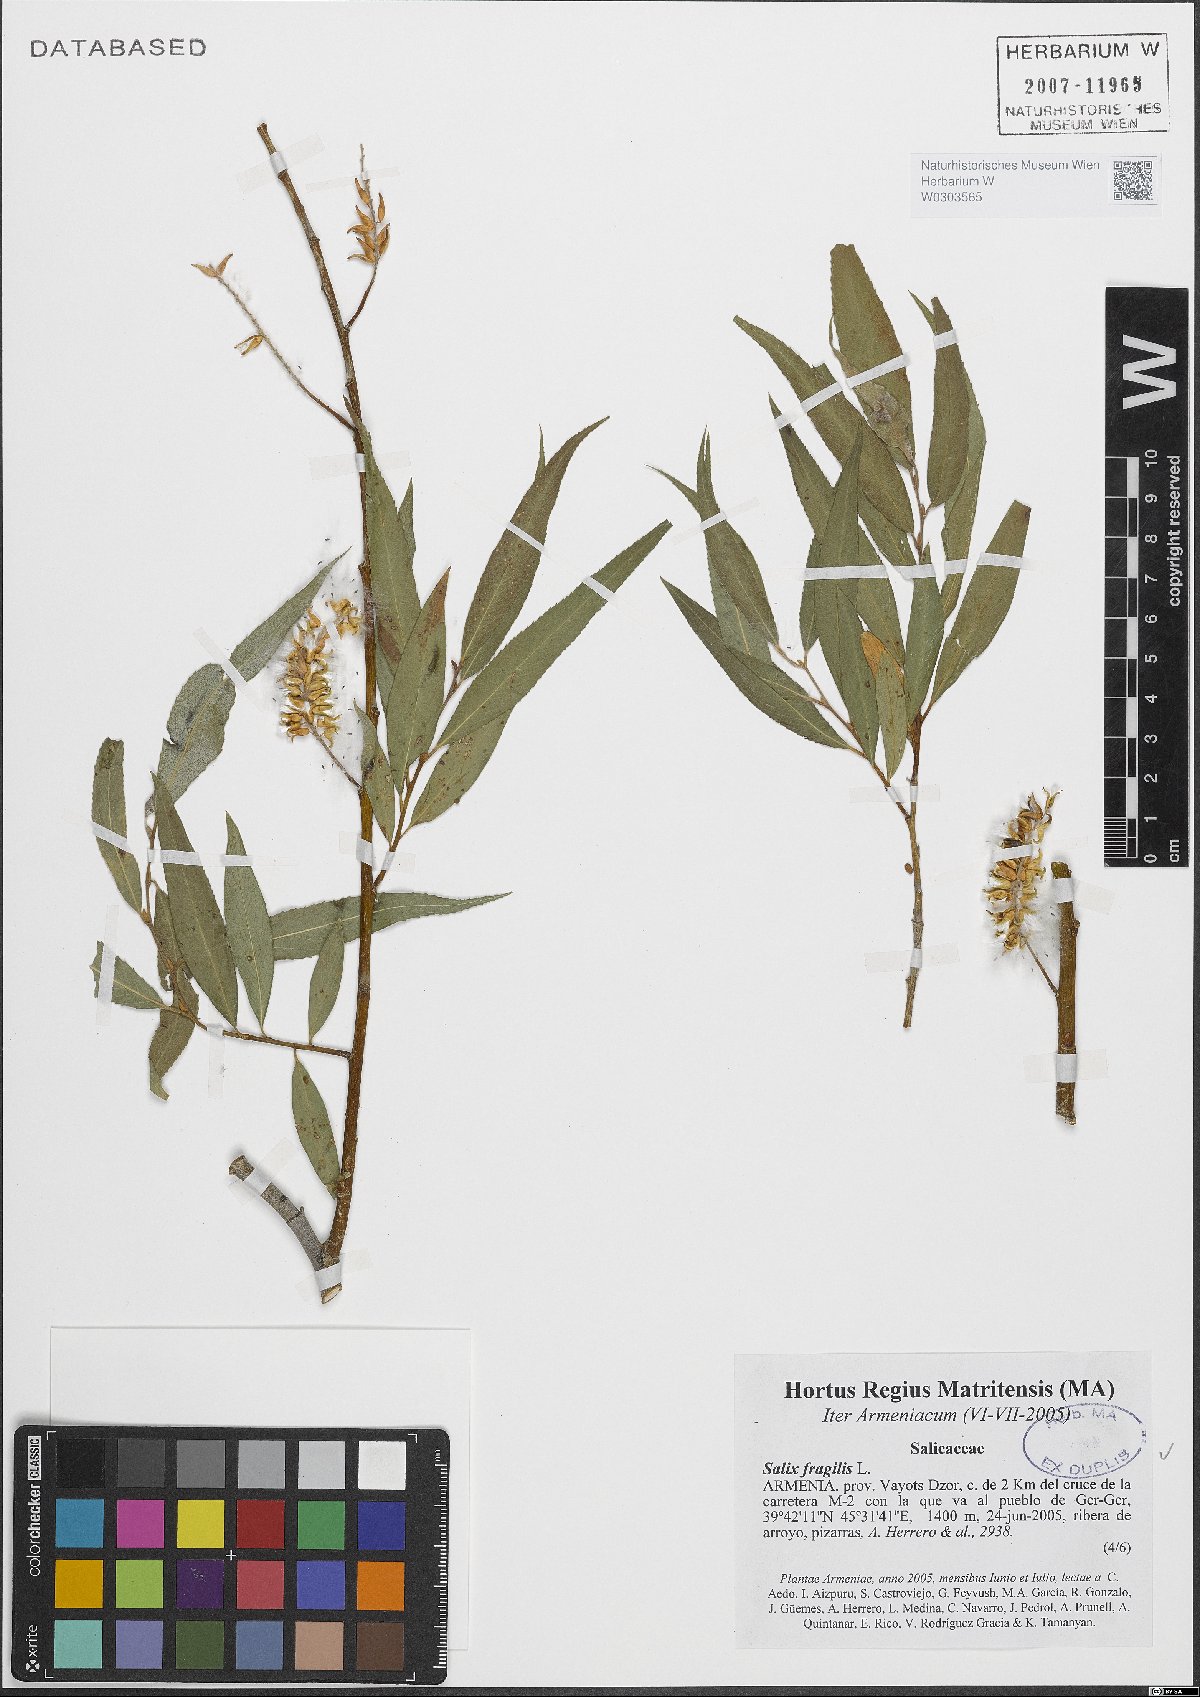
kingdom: Plantae
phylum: Tracheophyta
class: Magnoliopsida
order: Malpighiales
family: Salicaceae
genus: Salix
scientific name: Salix fragilis
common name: Crack willow
